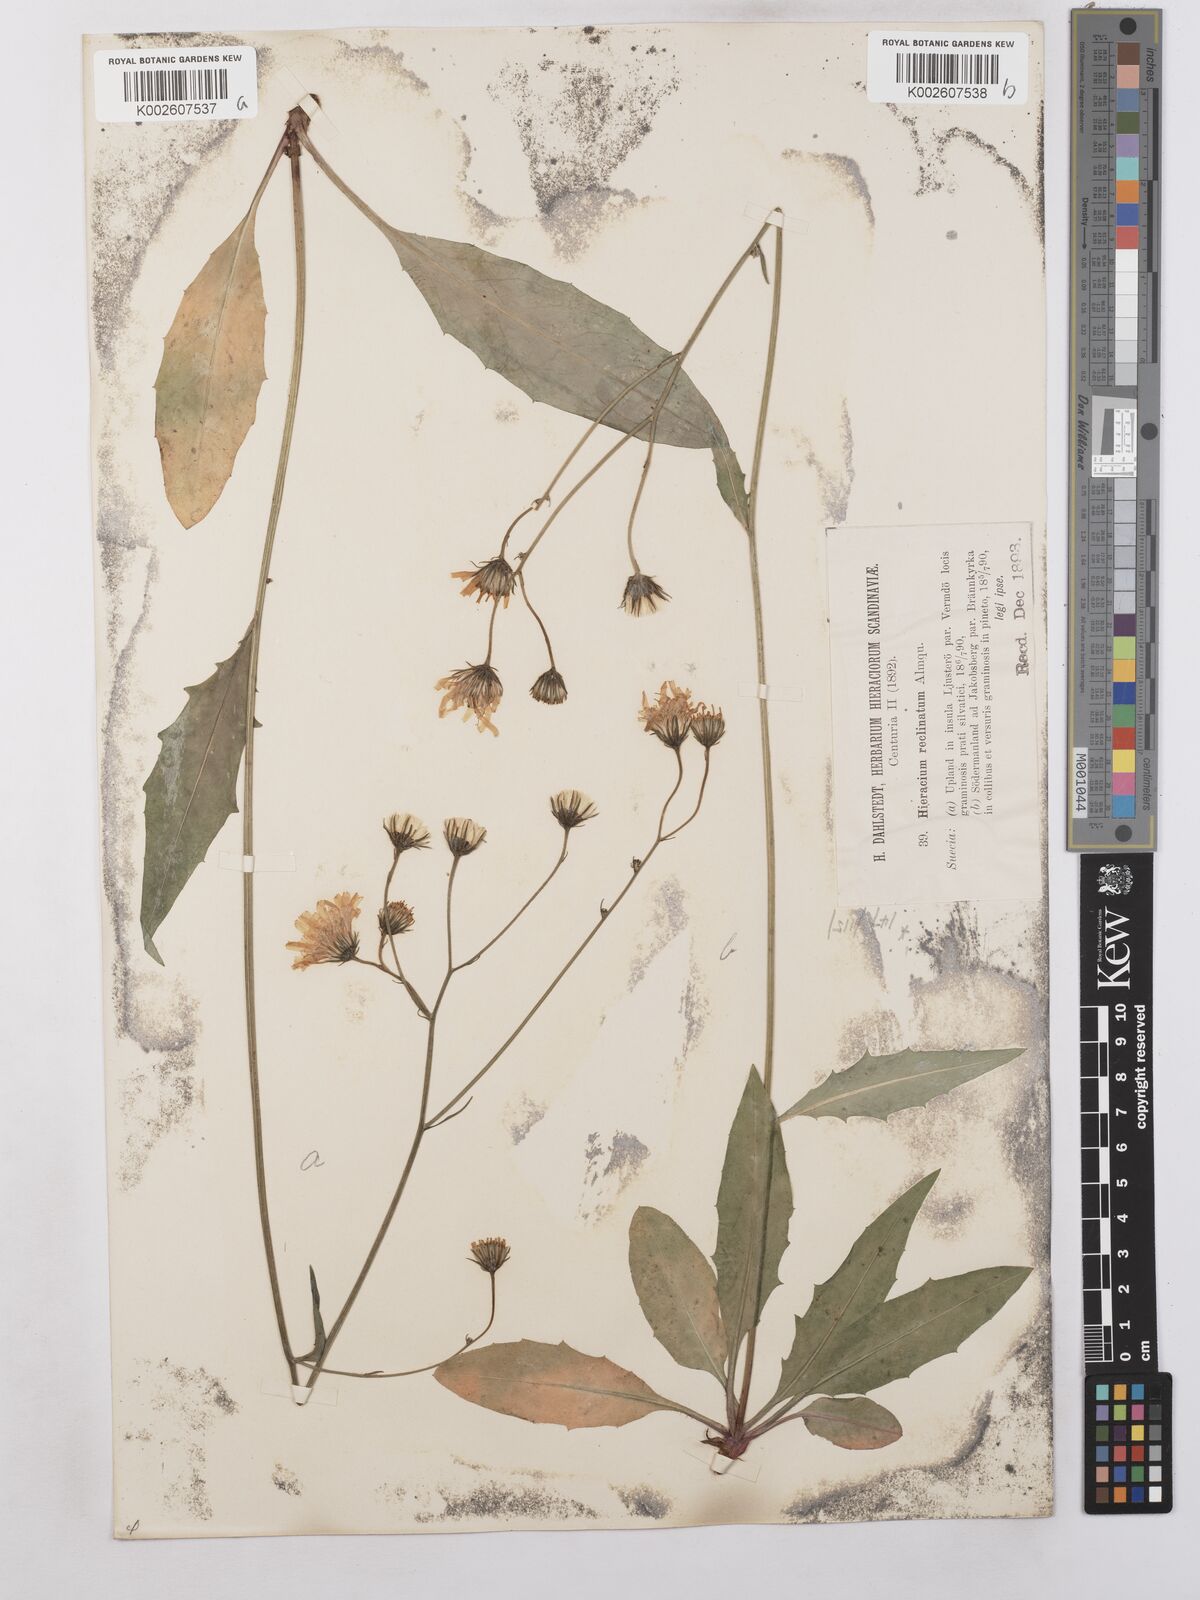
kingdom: Plantae
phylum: Tracheophyta
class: Magnoliopsida
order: Asterales
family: Asteraceae
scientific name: Asteraceae
